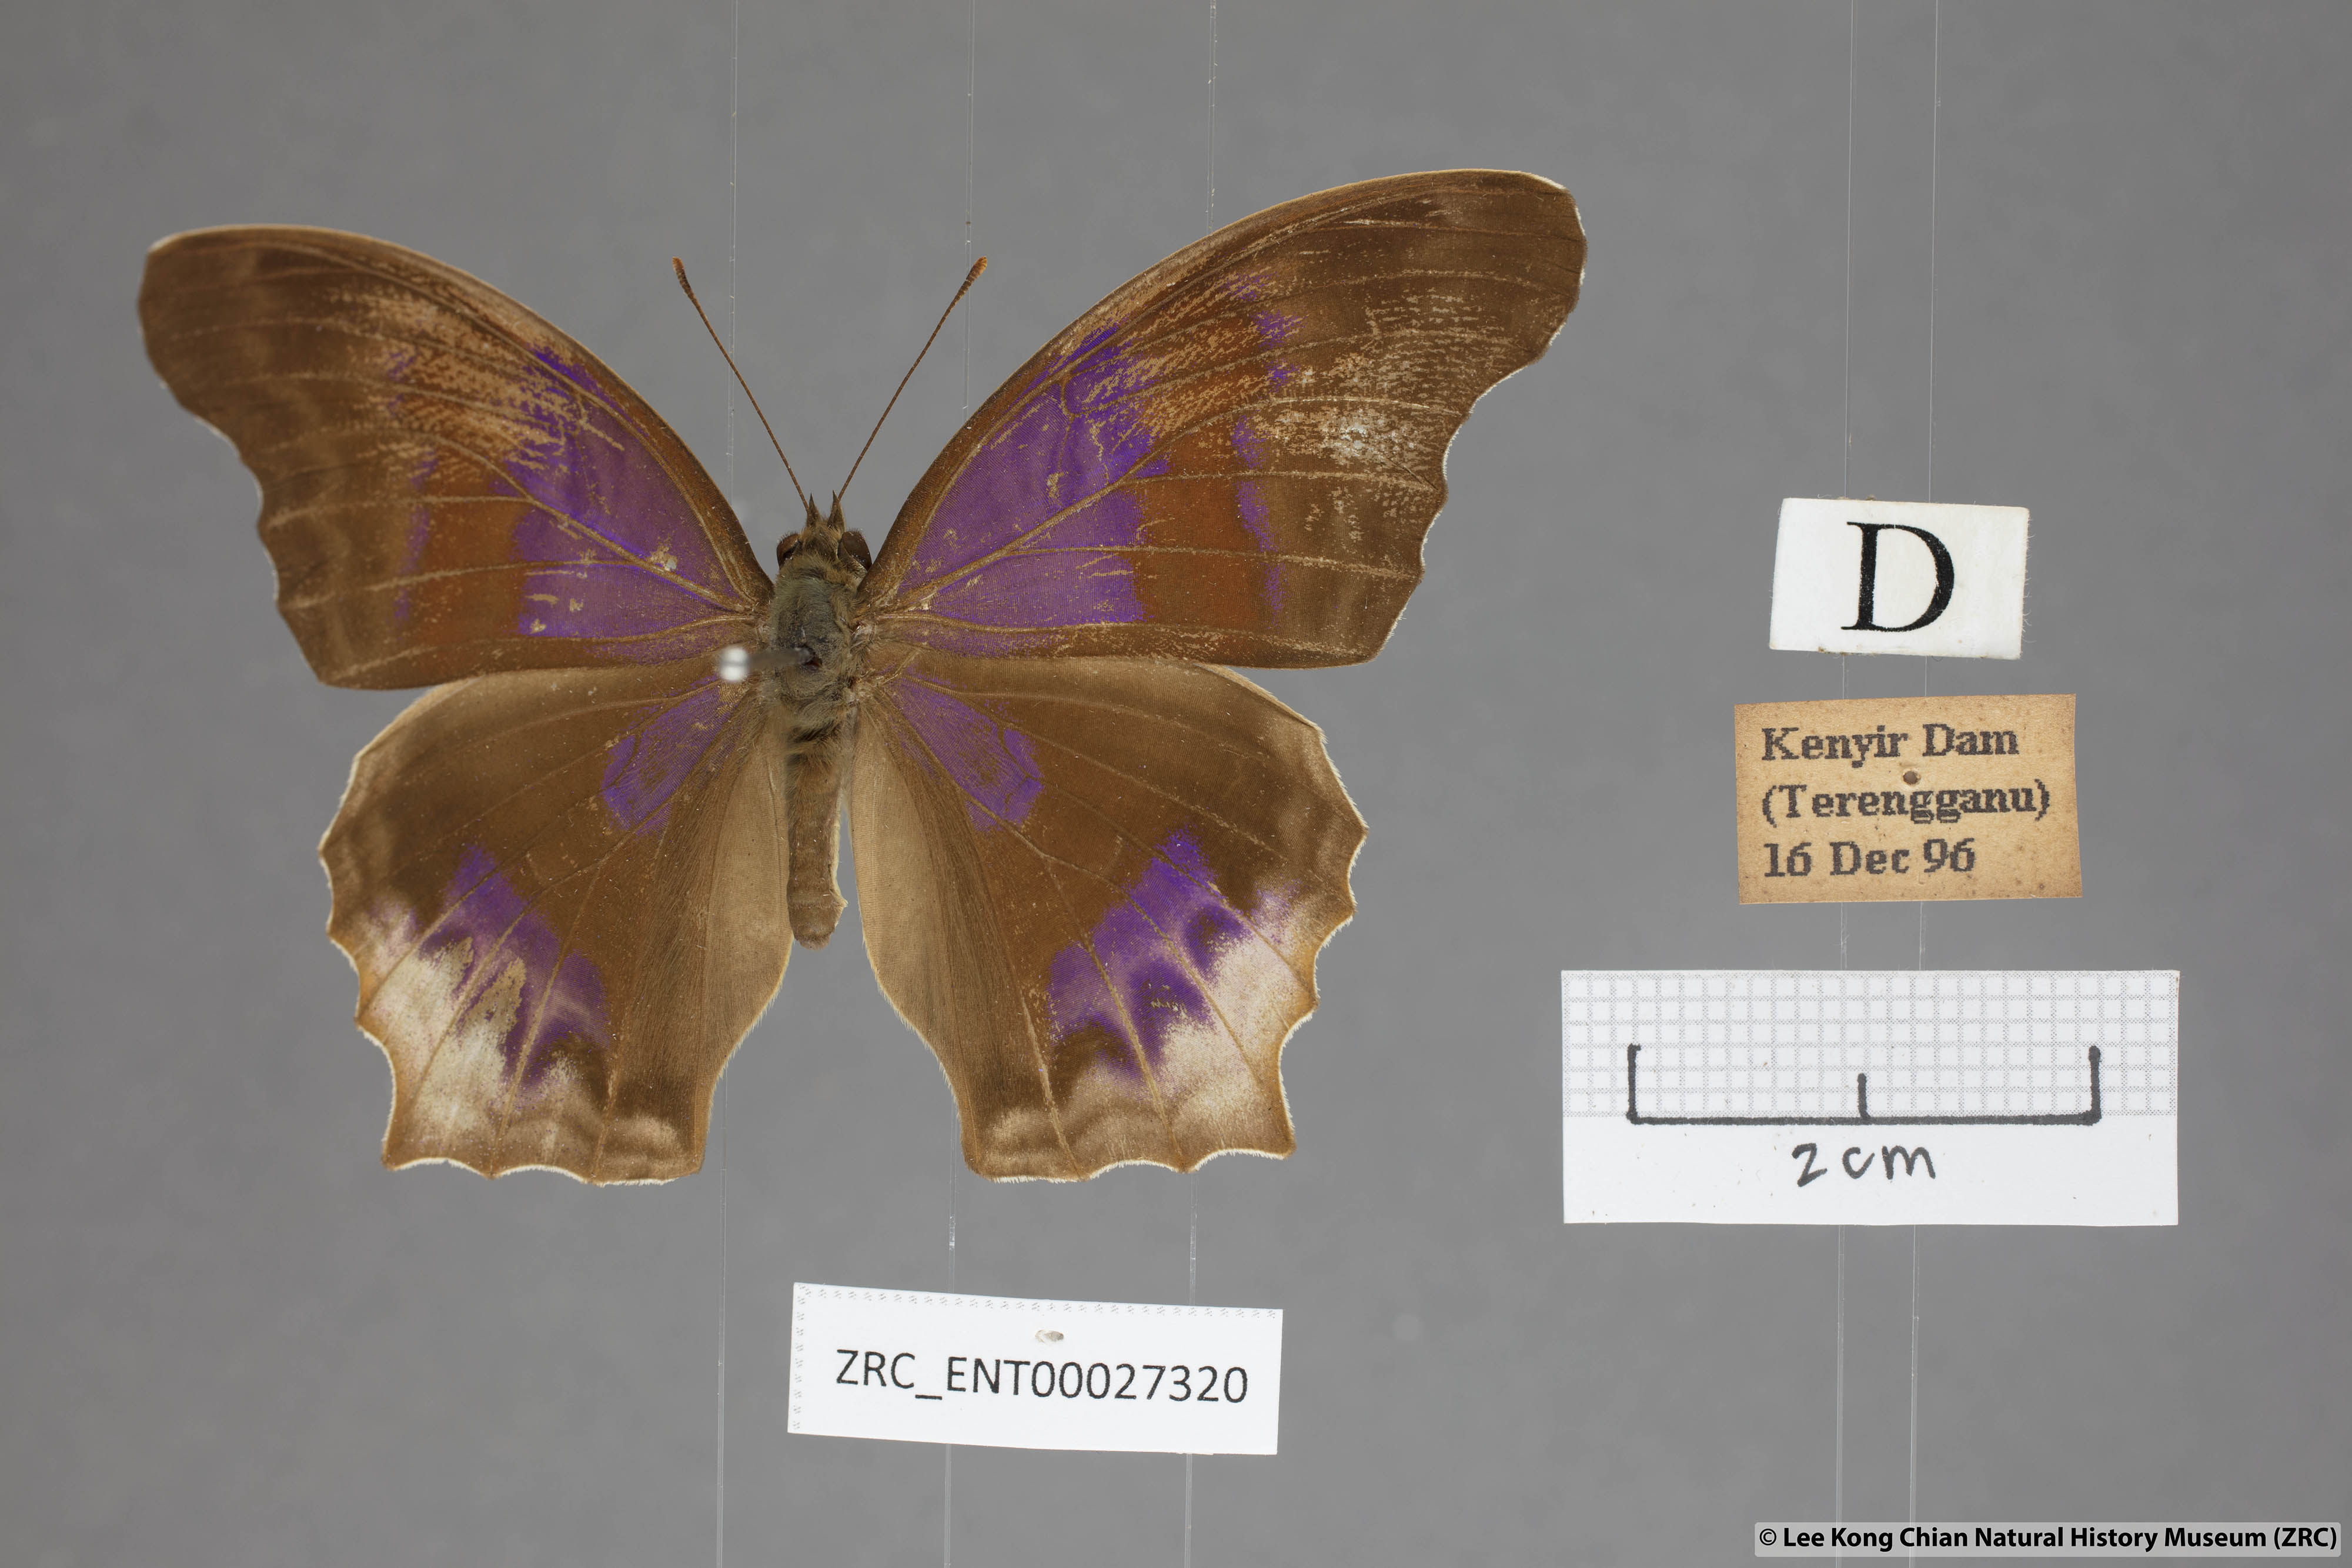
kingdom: Animalia
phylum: Arthropoda
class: Insecta
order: Lepidoptera
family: Nymphalidae
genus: Terinos
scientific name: Terinos atlita
